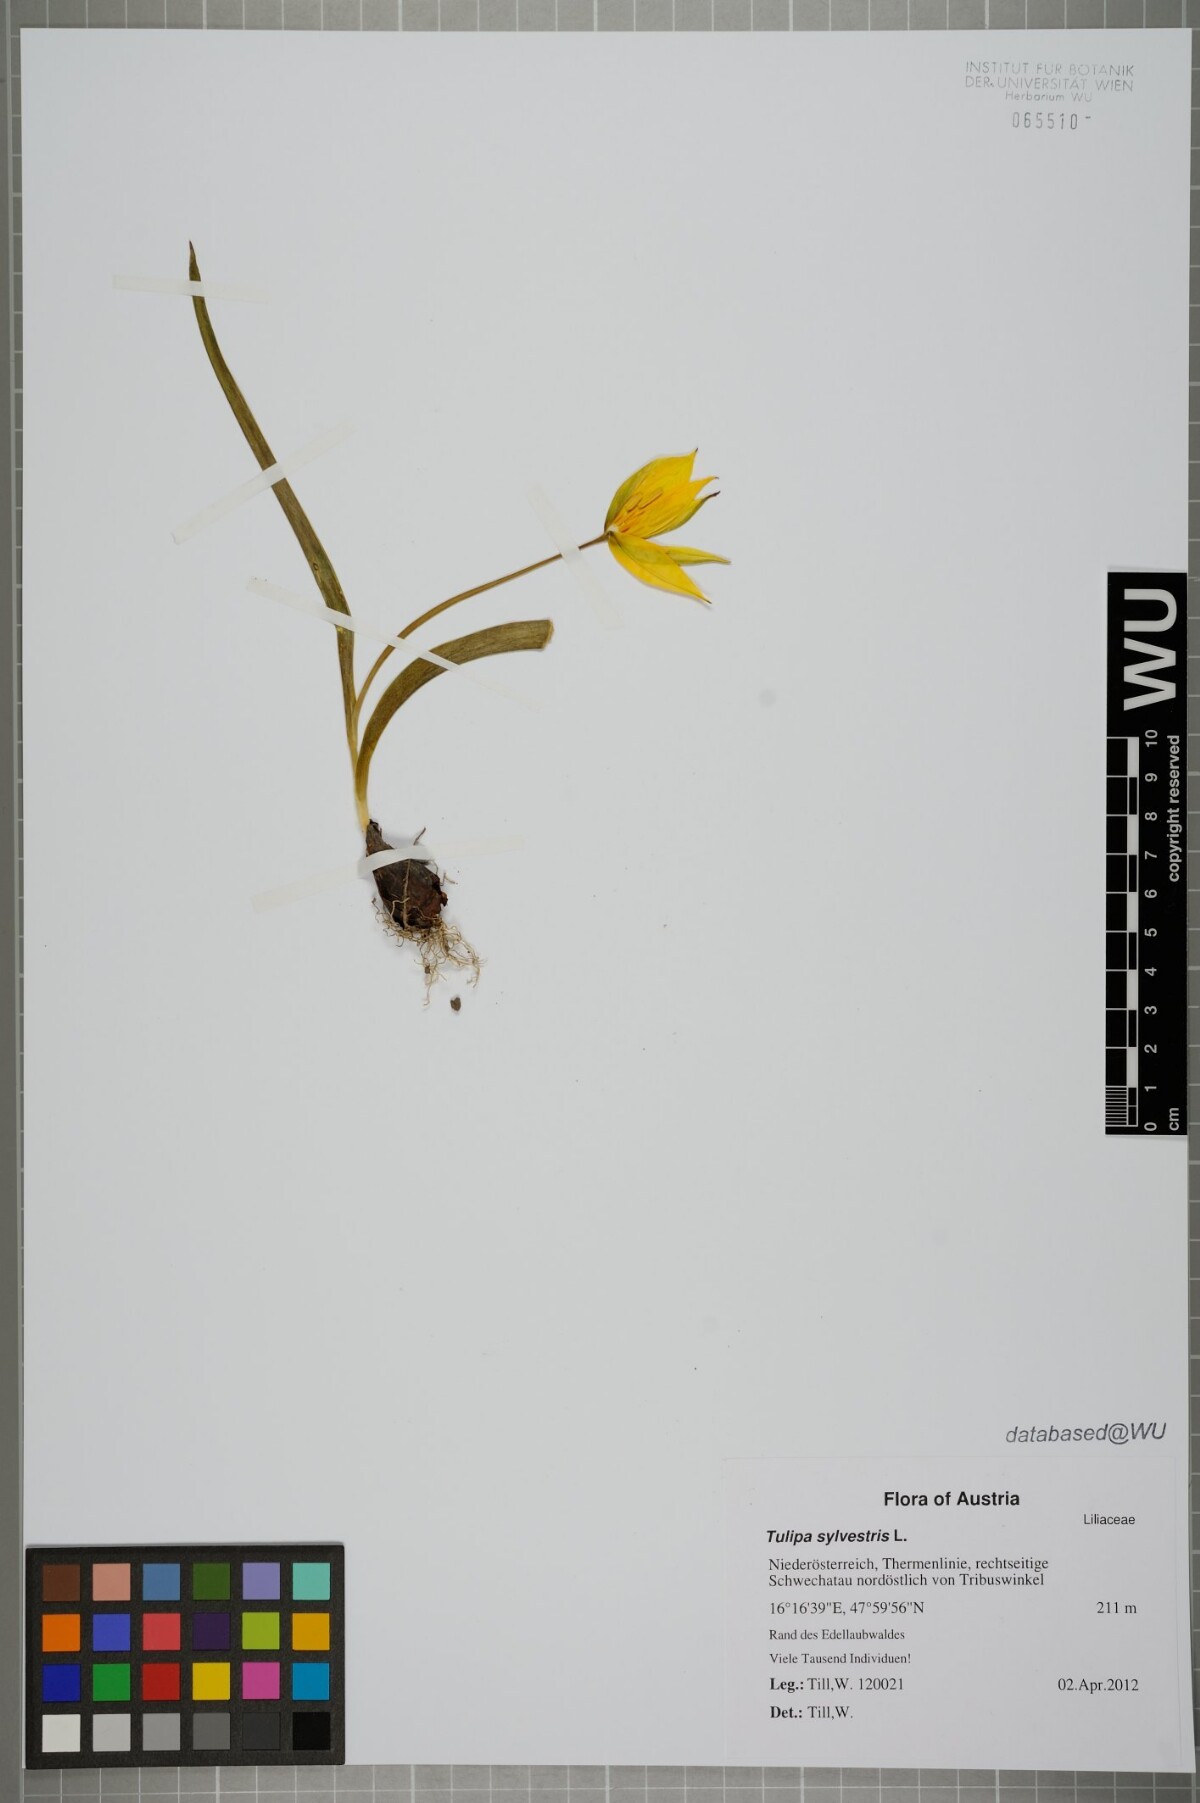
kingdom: Plantae
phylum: Tracheophyta
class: Liliopsida
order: Liliales
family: Liliaceae
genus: Tulipa
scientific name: Tulipa sylvestris
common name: Wild tulip
